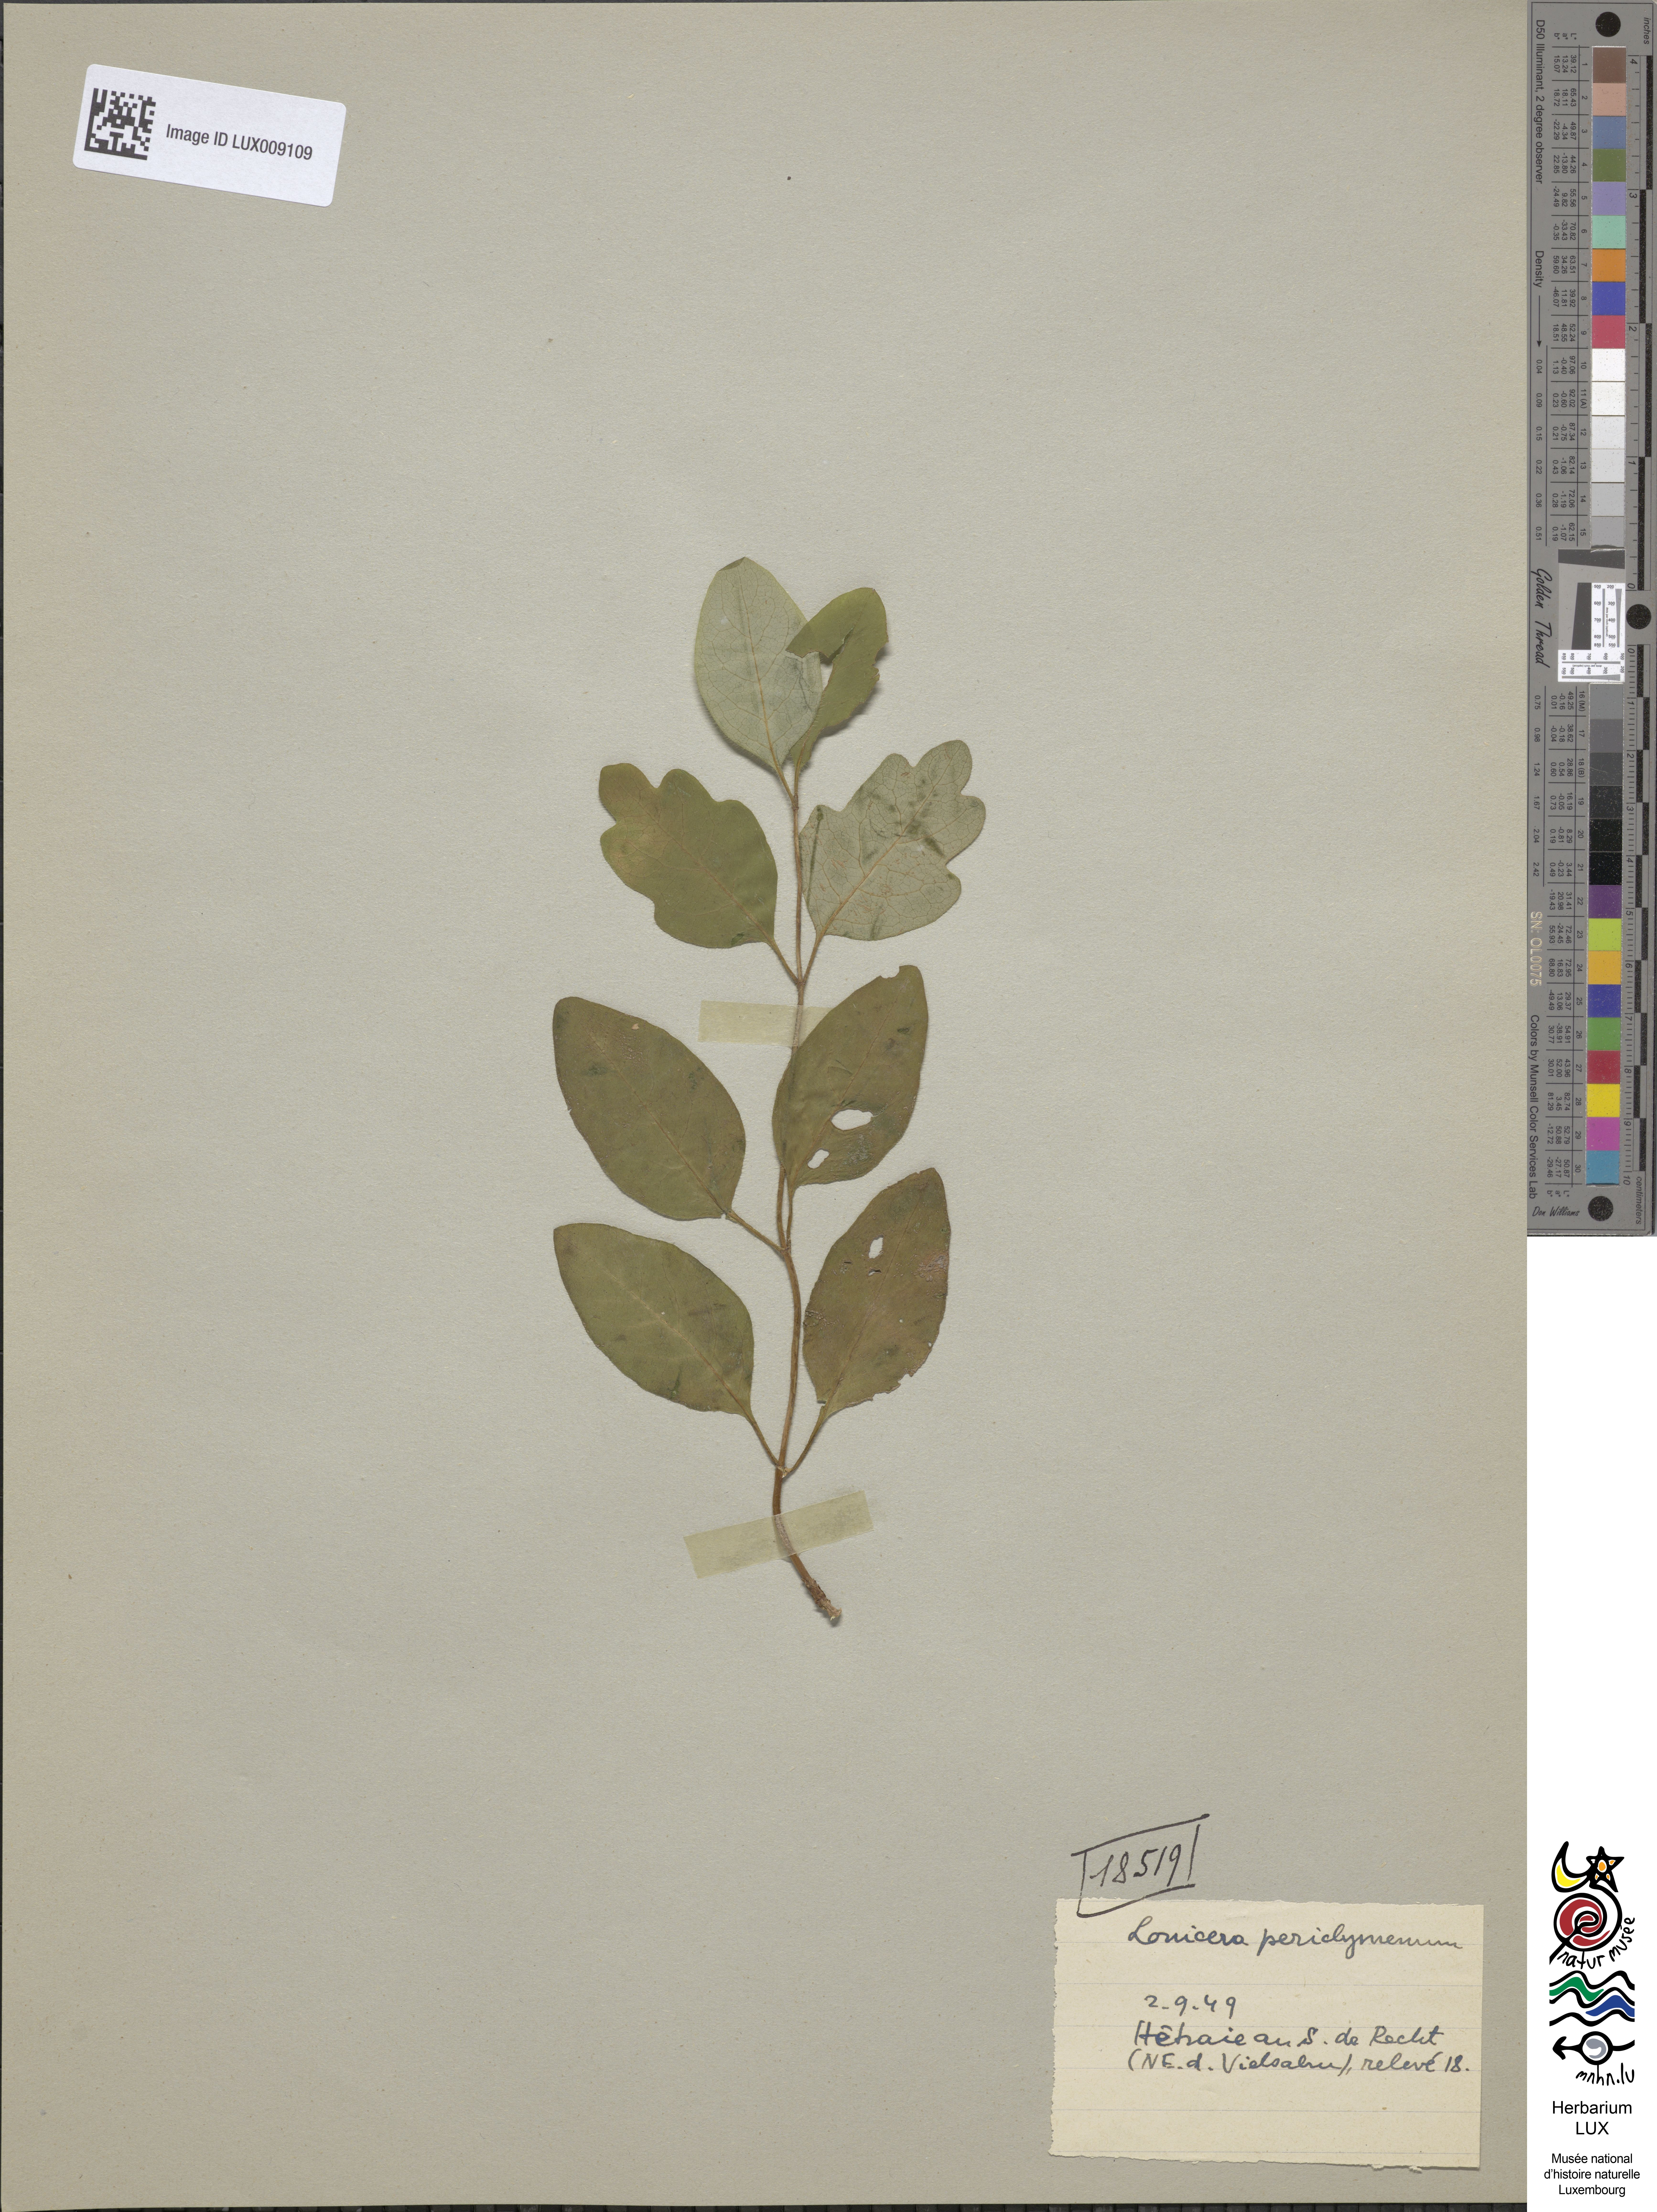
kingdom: Plantae
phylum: Tracheophyta
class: Magnoliopsida
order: Dipsacales
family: Caprifoliaceae
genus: Lonicera
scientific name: Lonicera periclymenum
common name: European honeysuckle
